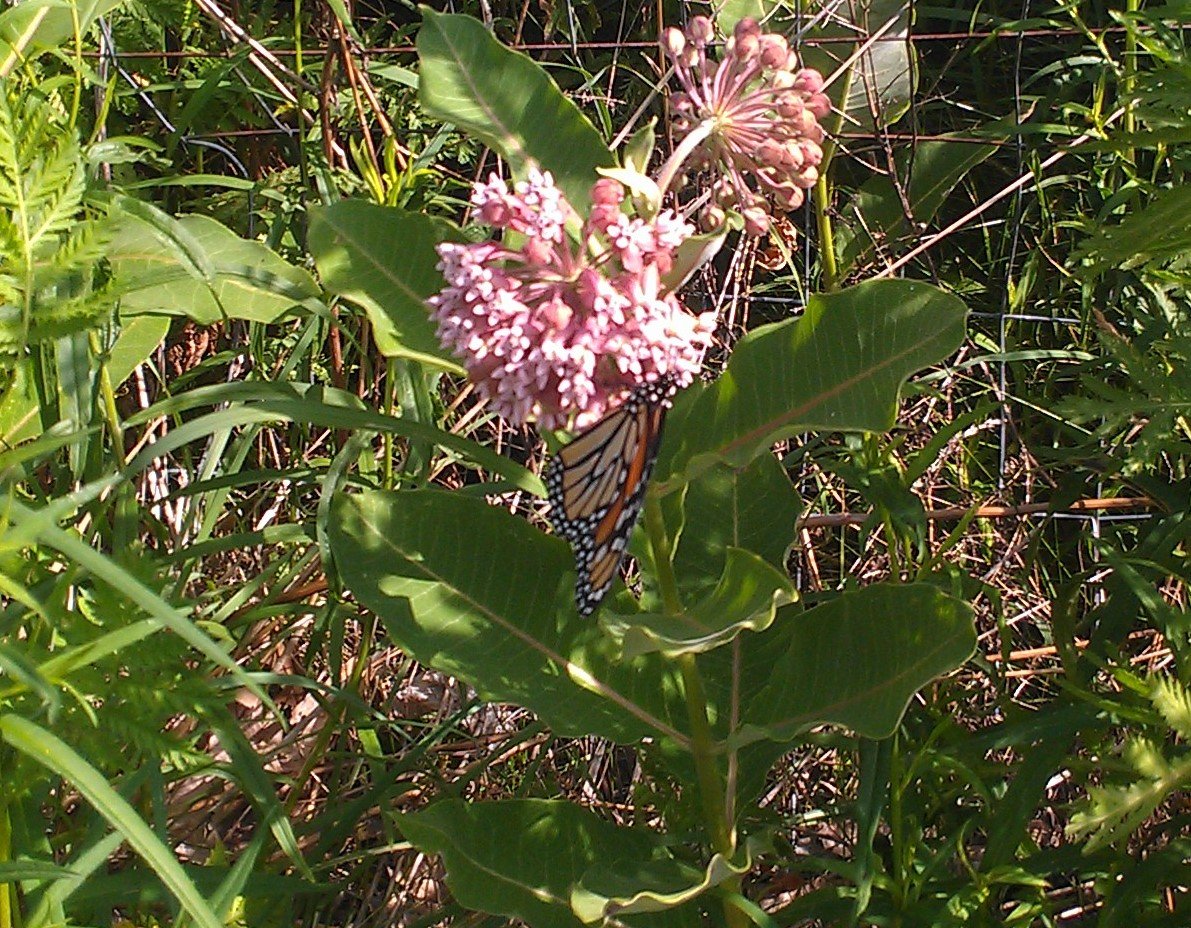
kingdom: Animalia
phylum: Arthropoda
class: Insecta
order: Lepidoptera
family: Nymphalidae
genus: Danaus
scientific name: Danaus plexippus
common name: Monarch
